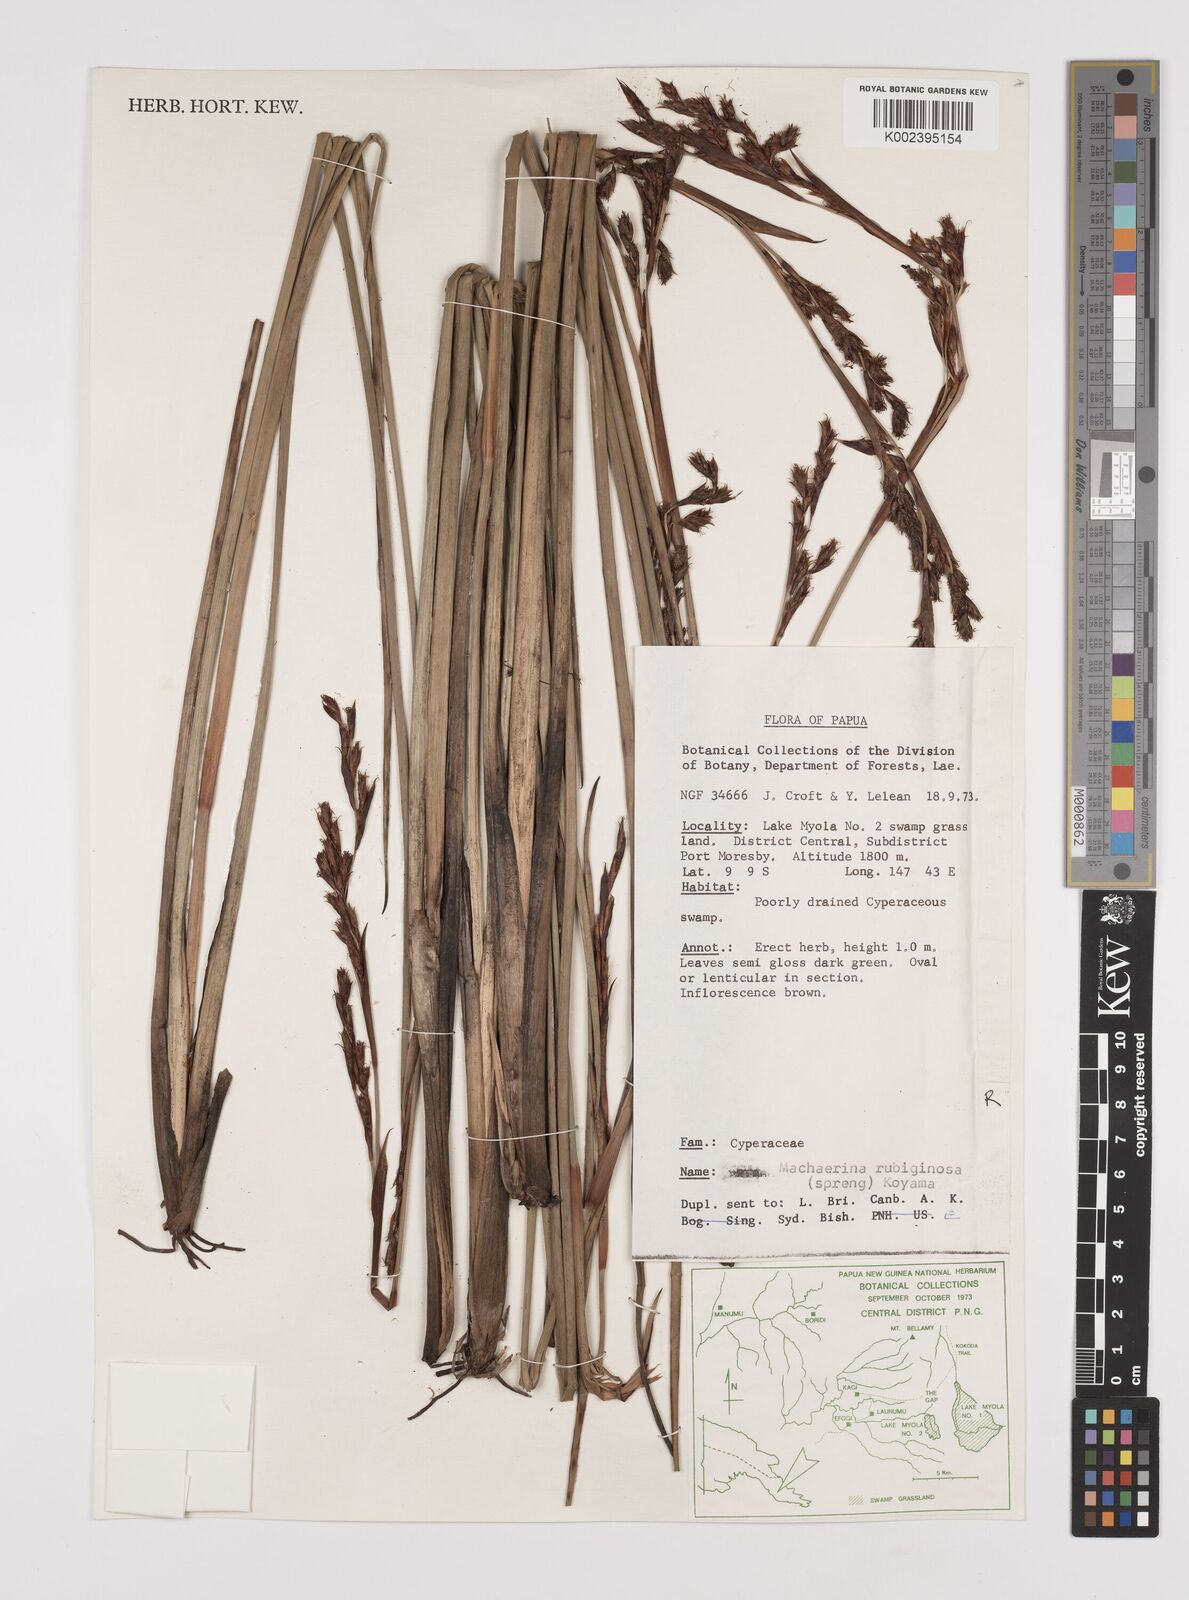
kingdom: Plantae
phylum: Tracheophyta
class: Liliopsida
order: Poales
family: Cyperaceae
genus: Machaerina
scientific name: Machaerina rubiginosa
